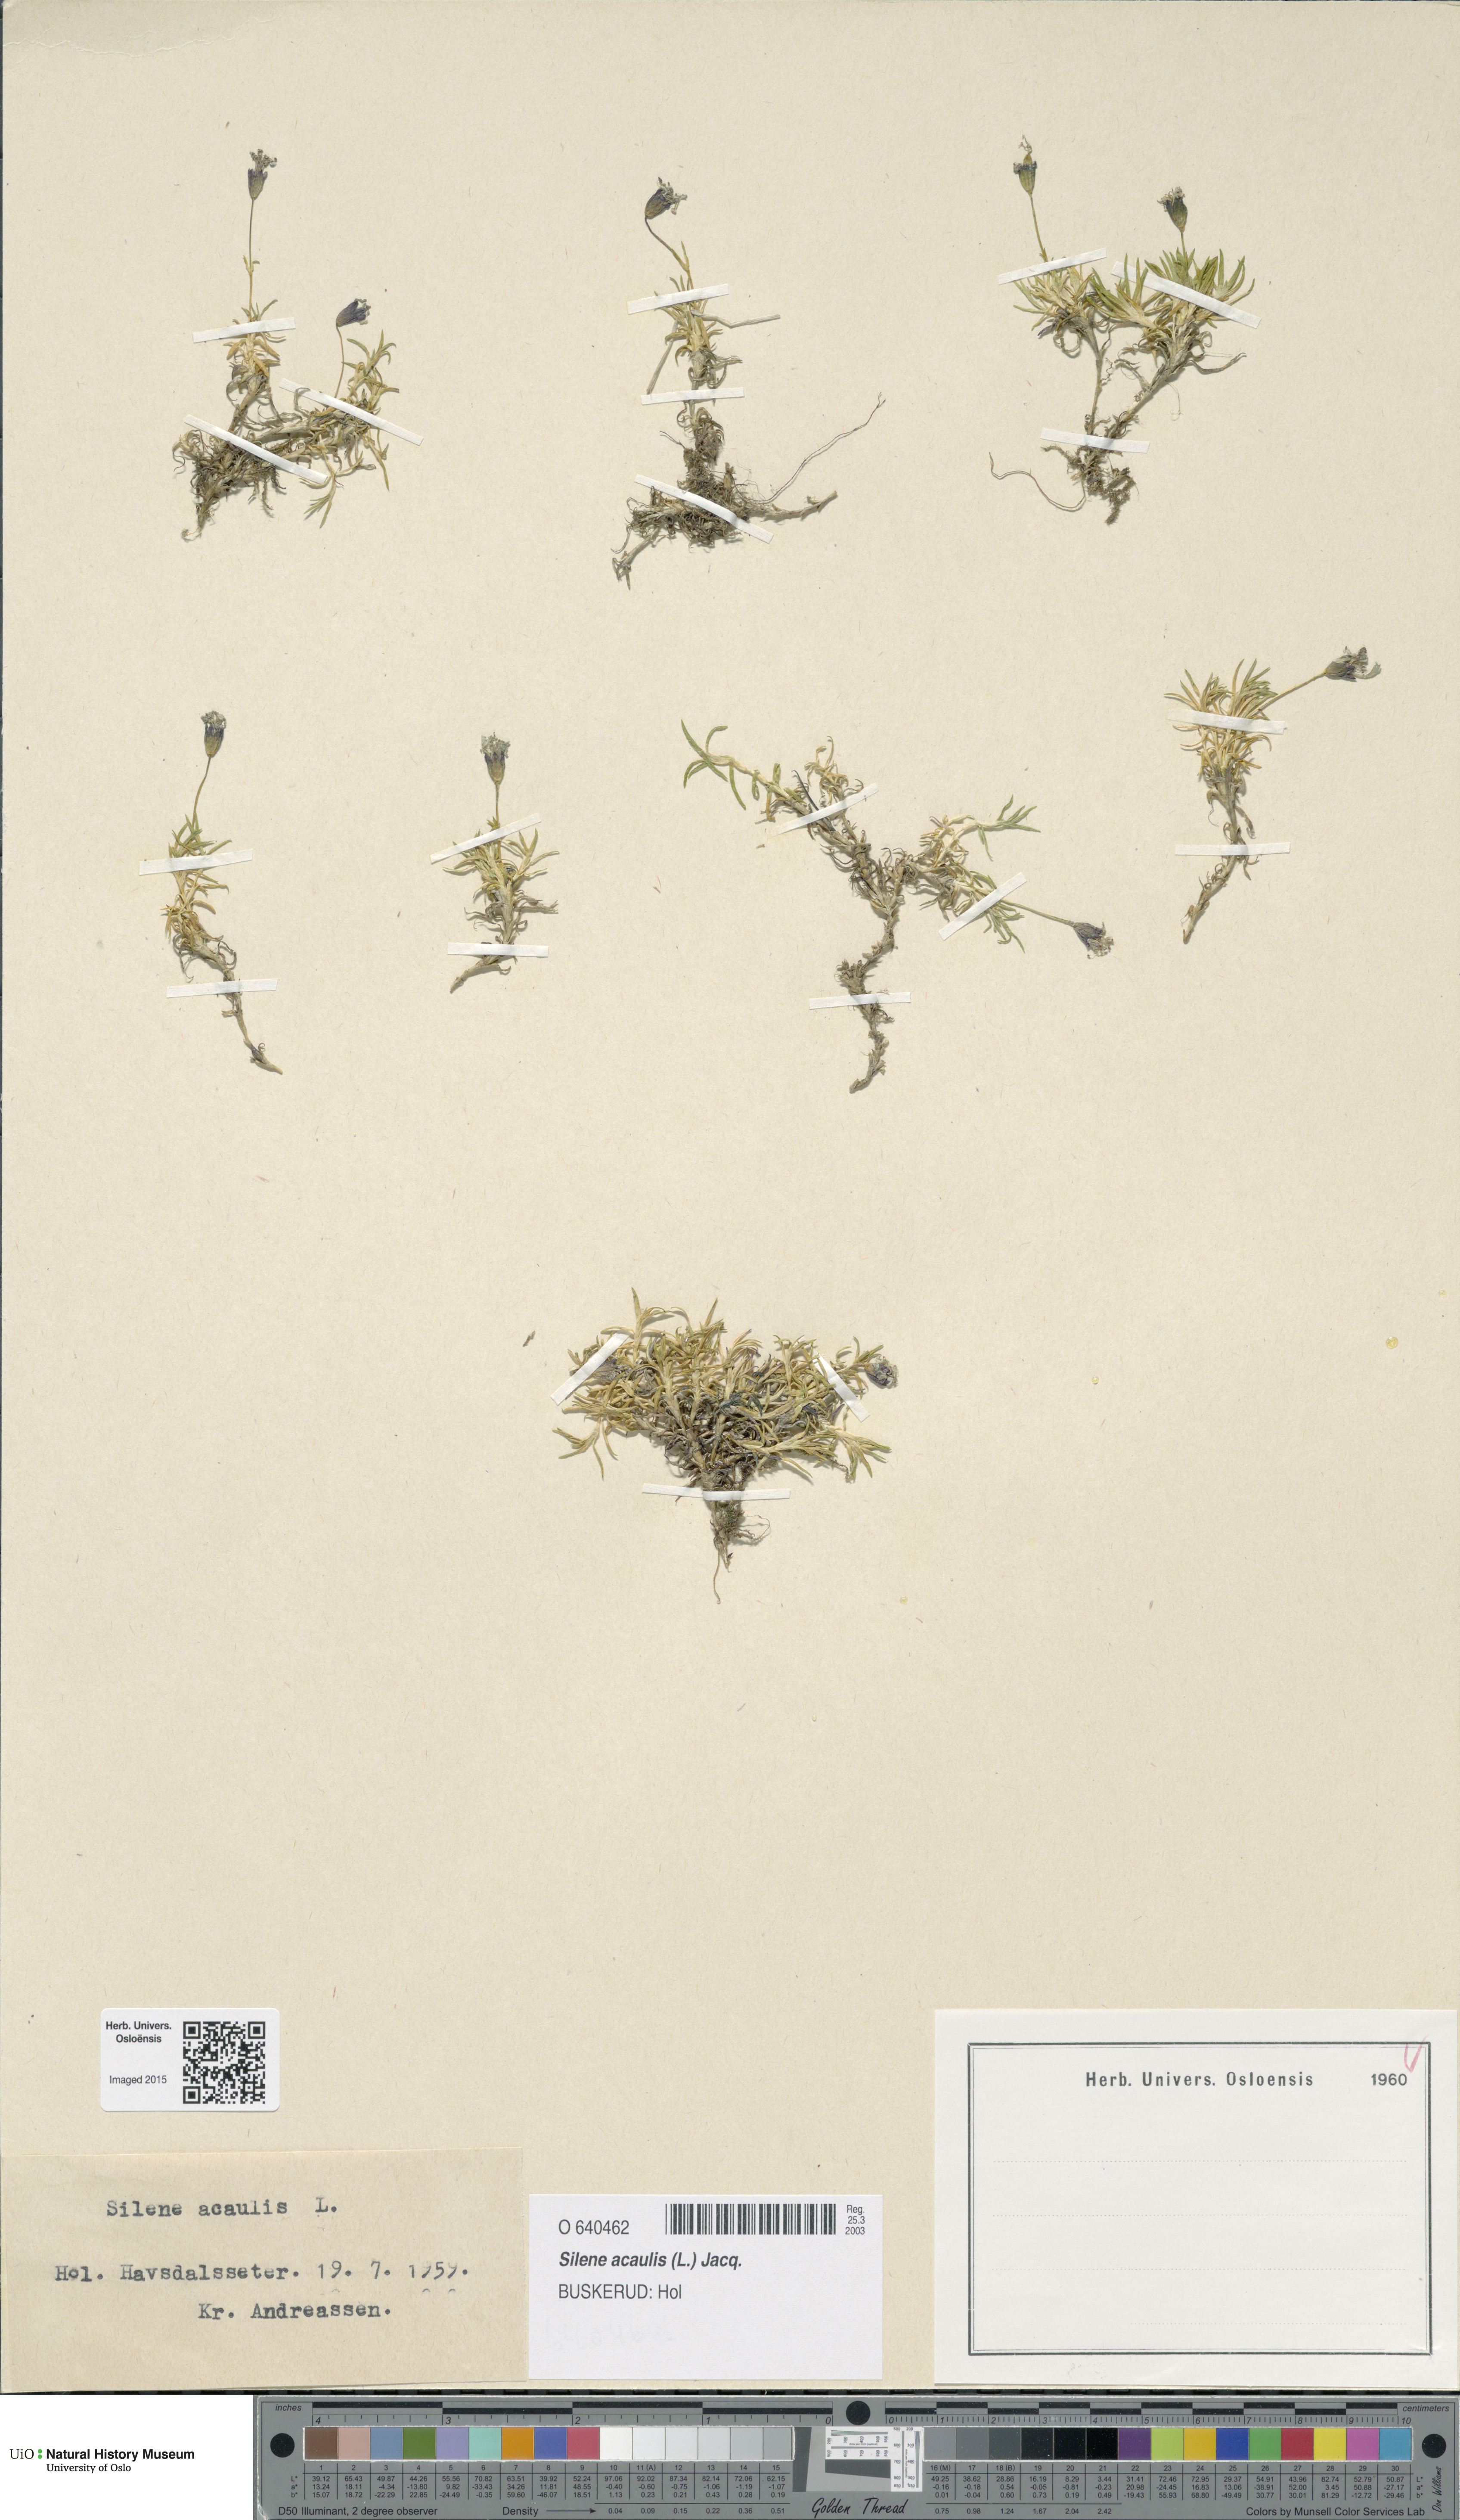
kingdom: Plantae
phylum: Tracheophyta
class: Magnoliopsida
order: Caryophyllales
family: Caryophyllaceae
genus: Silene
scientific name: Silene acaulis
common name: Moss campion
